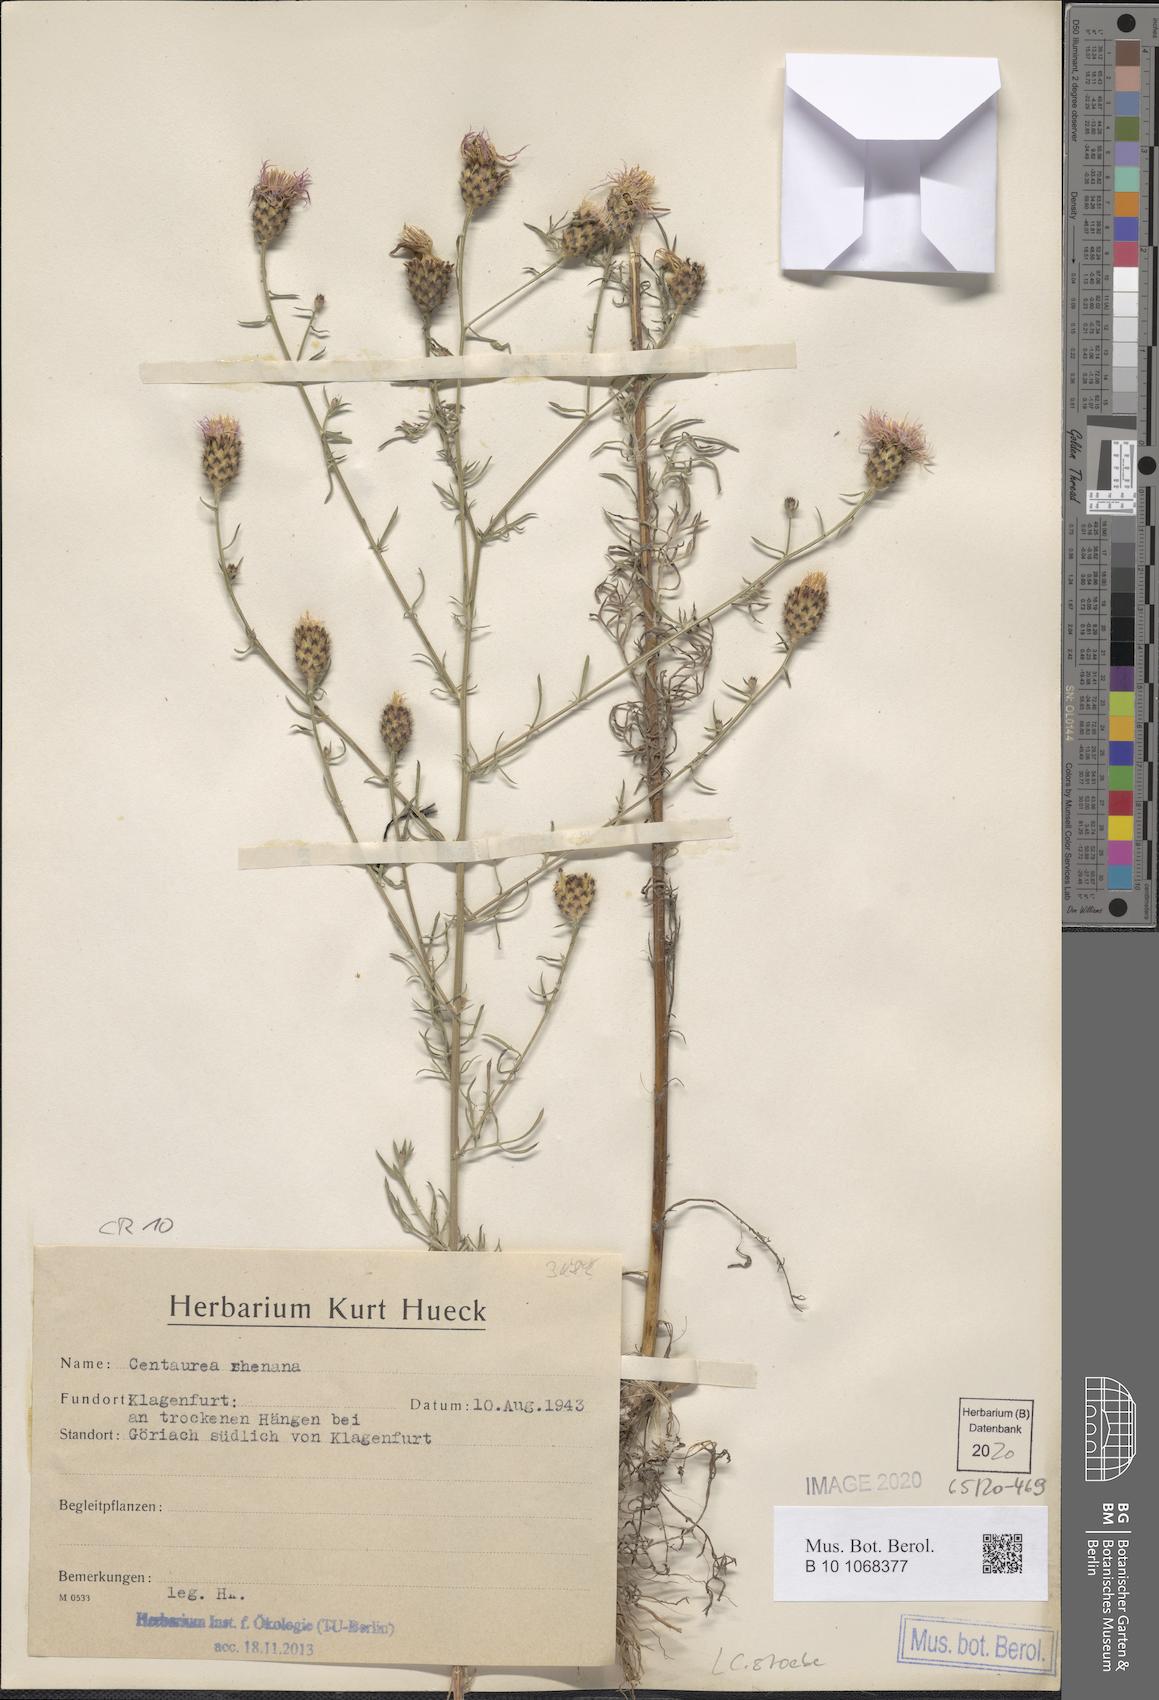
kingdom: Plantae
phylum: Tracheophyta
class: Magnoliopsida
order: Asterales
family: Asteraceae
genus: Centaurea
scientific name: Centaurea stoebe
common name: Spotted knapweed
